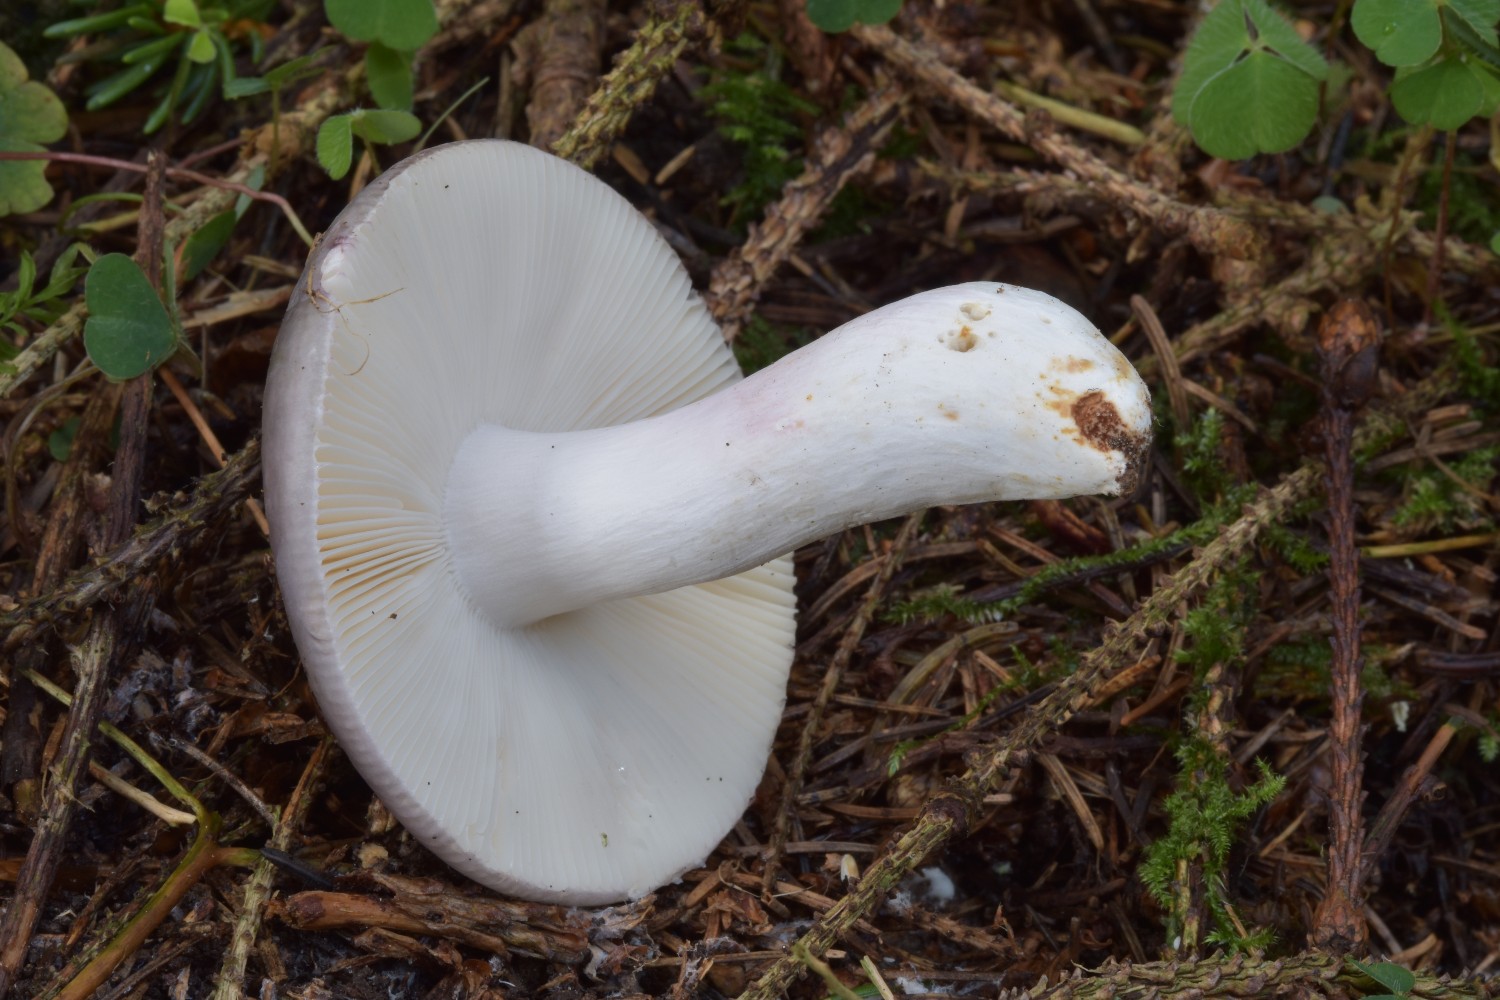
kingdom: Fungi
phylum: Basidiomycota
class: Agaricomycetes
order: Russulales
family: Russulaceae
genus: Russula
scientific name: Russula ionochlora
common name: violetgrøn skørhat
